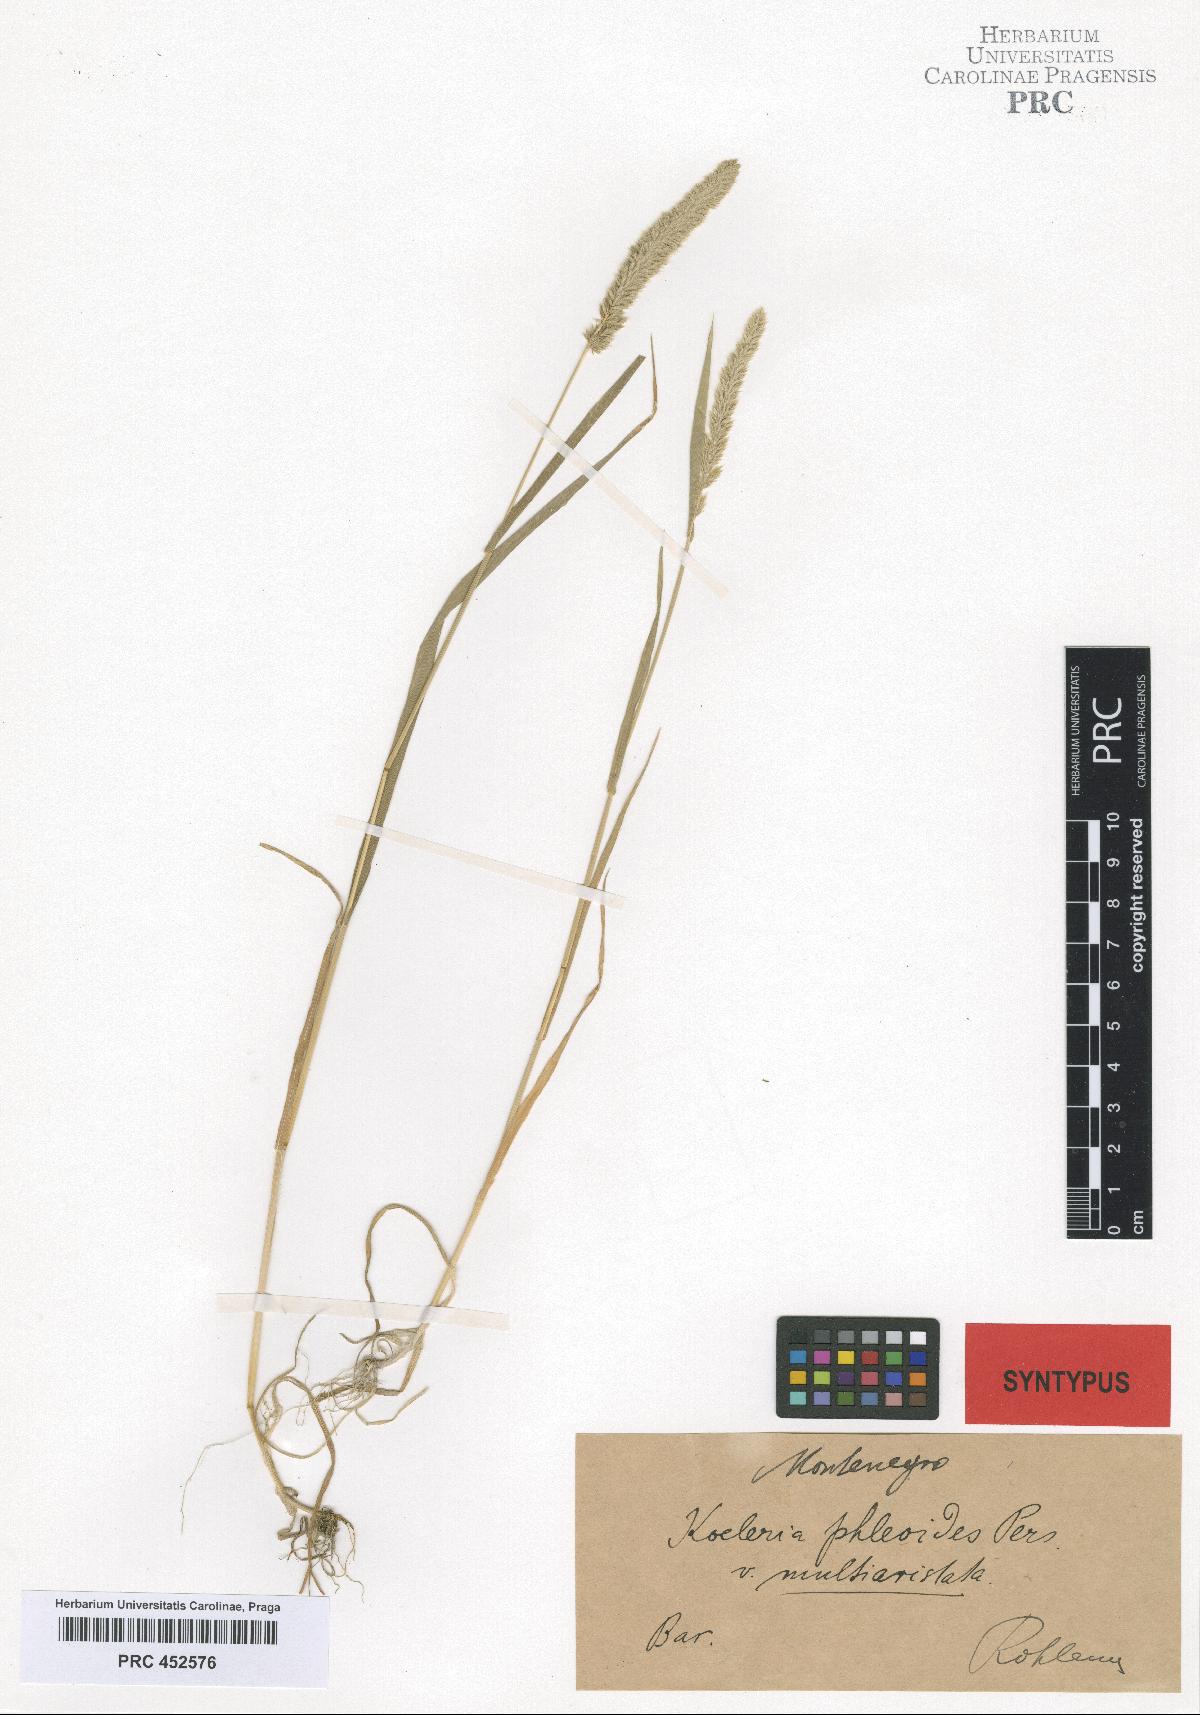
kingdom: Plantae
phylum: Tracheophyta
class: Liliopsida
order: Poales
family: Poaceae
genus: Rostraria
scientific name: Rostraria cristata
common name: Mediterranean hair-grass
